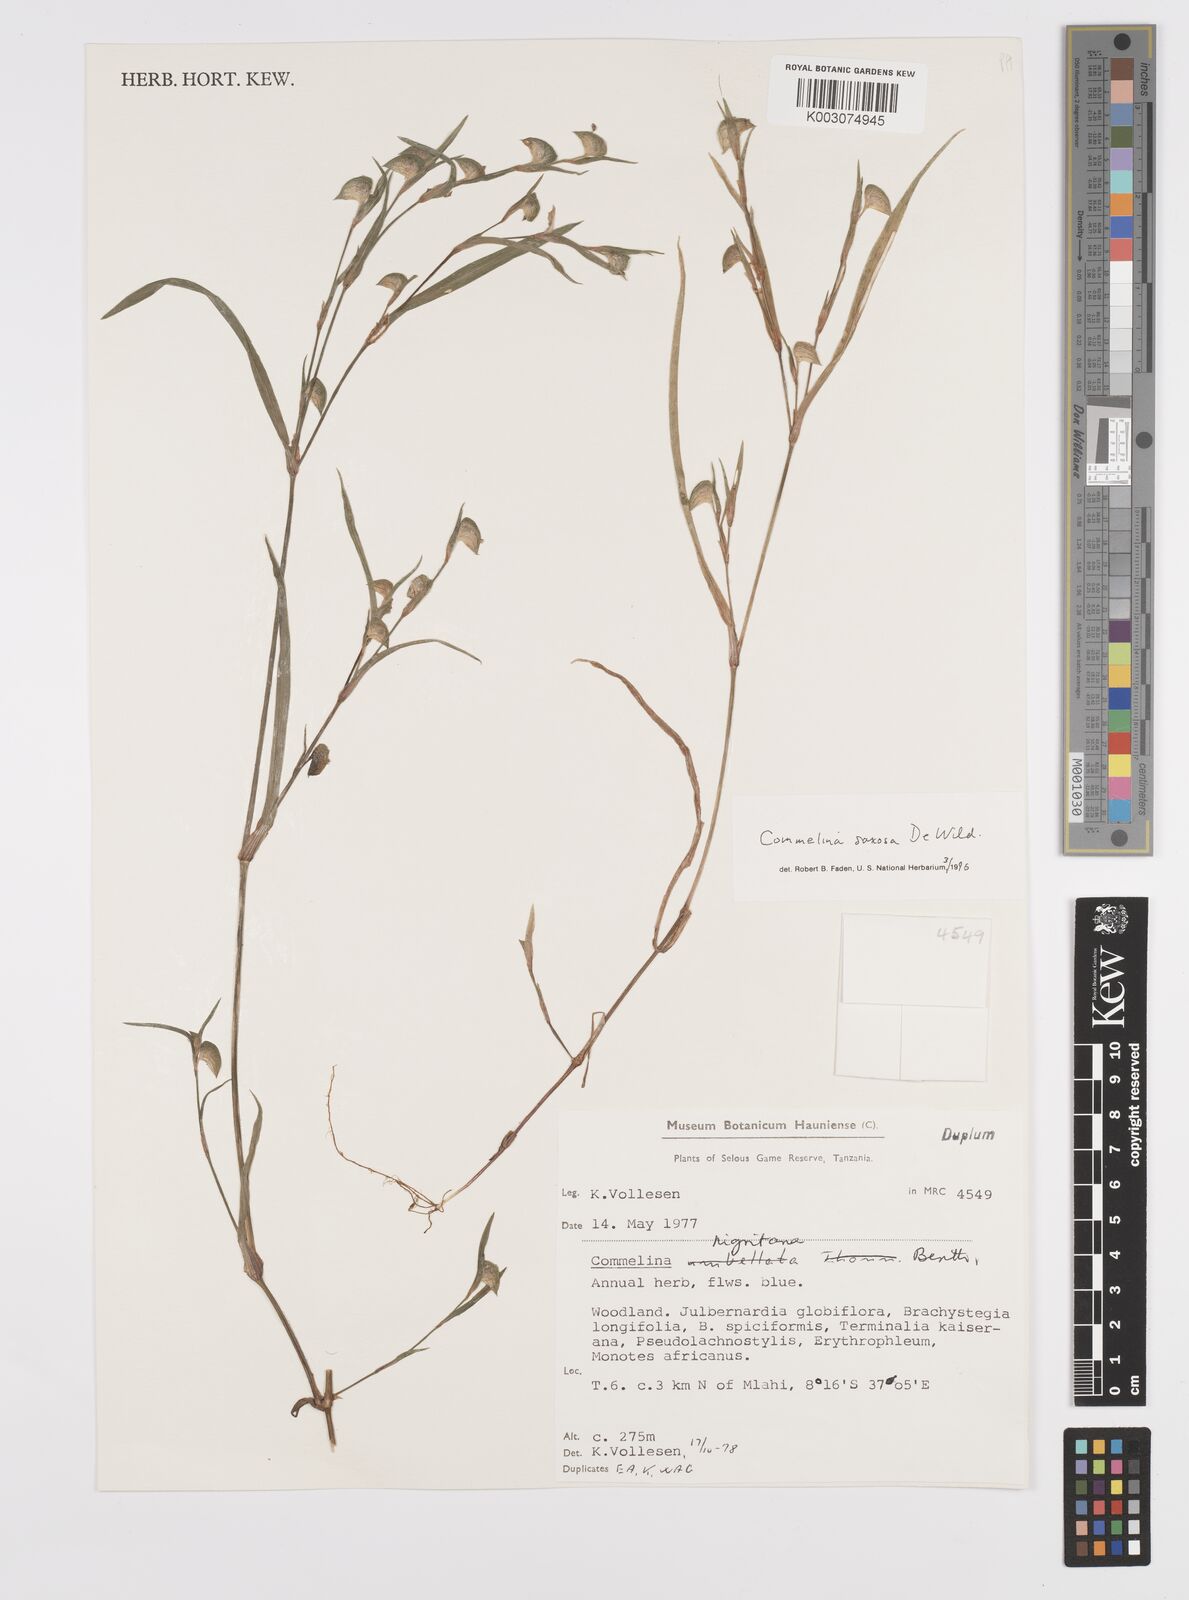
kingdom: Plantae
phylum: Tracheophyta
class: Liliopsida
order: Commelinales
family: Commelinaceae
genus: Commelina
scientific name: Commelina saxosa
